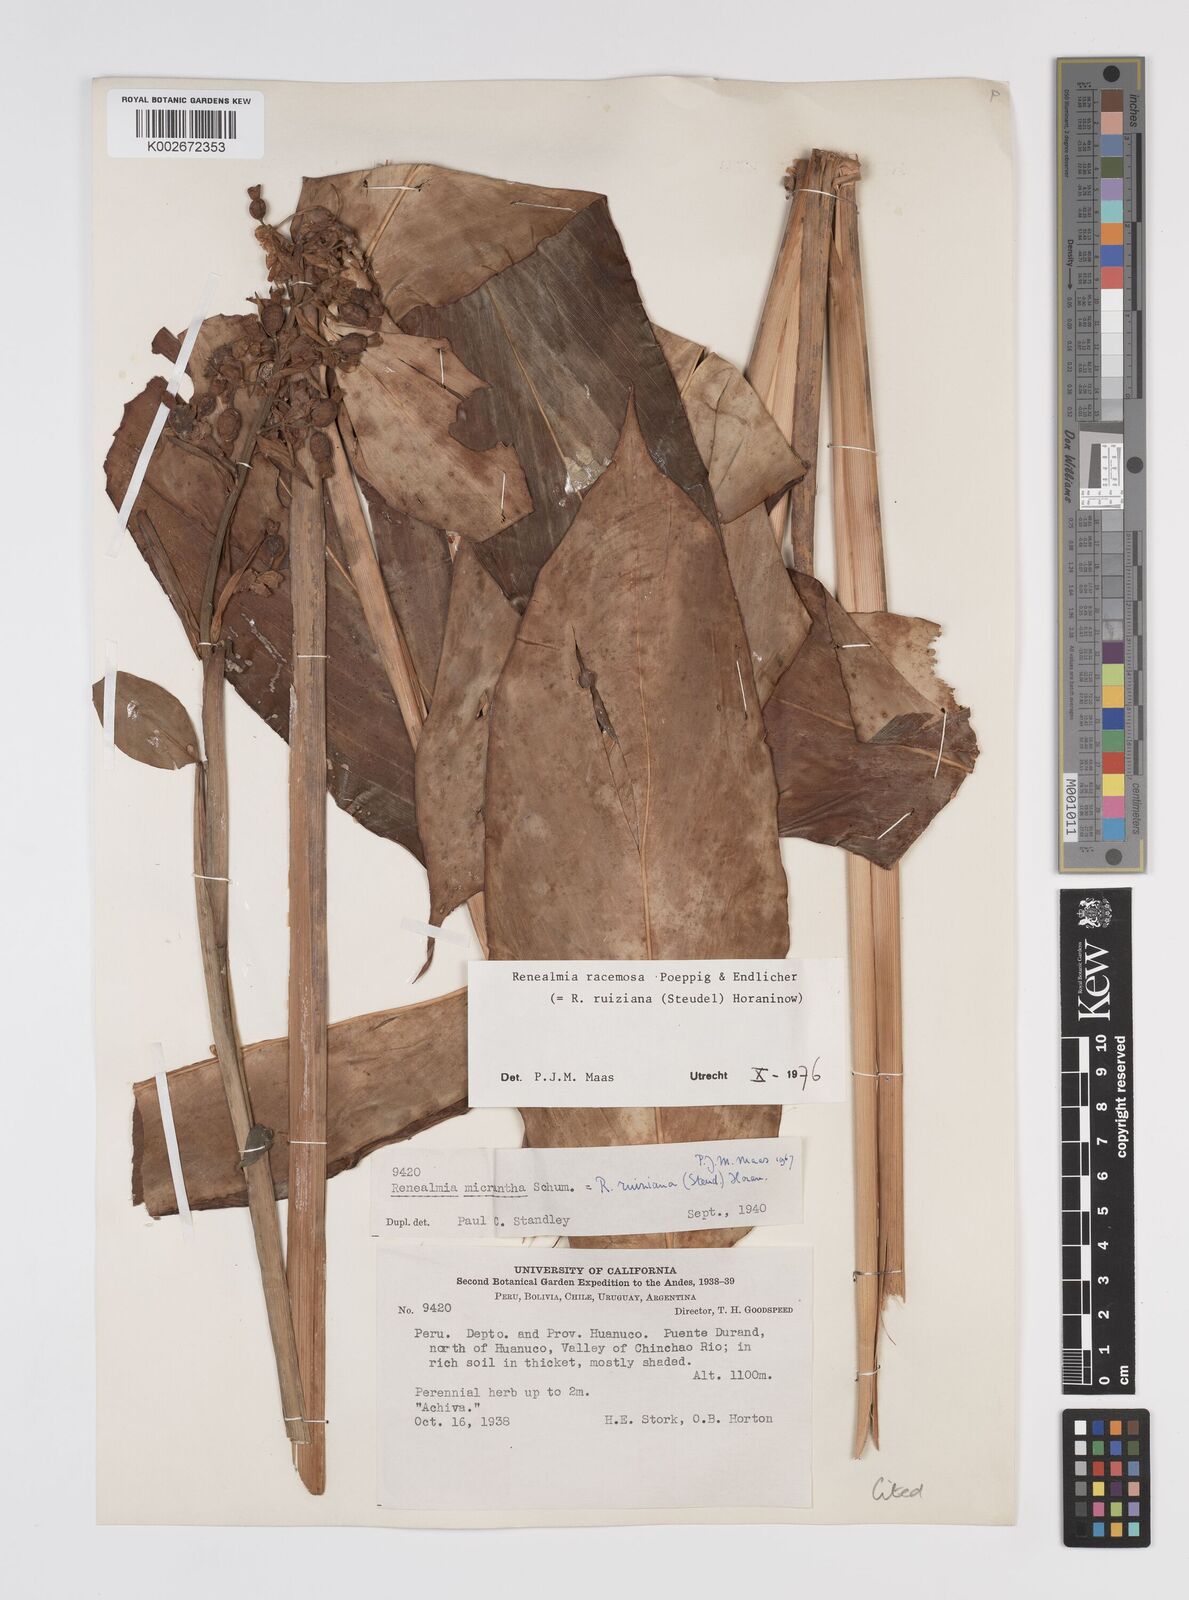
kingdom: Plantae
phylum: Tracheophyta
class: Liliopsida
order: Zingiberales
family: Zingiberaceae
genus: Renealmia
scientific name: Renealmia racemosa
